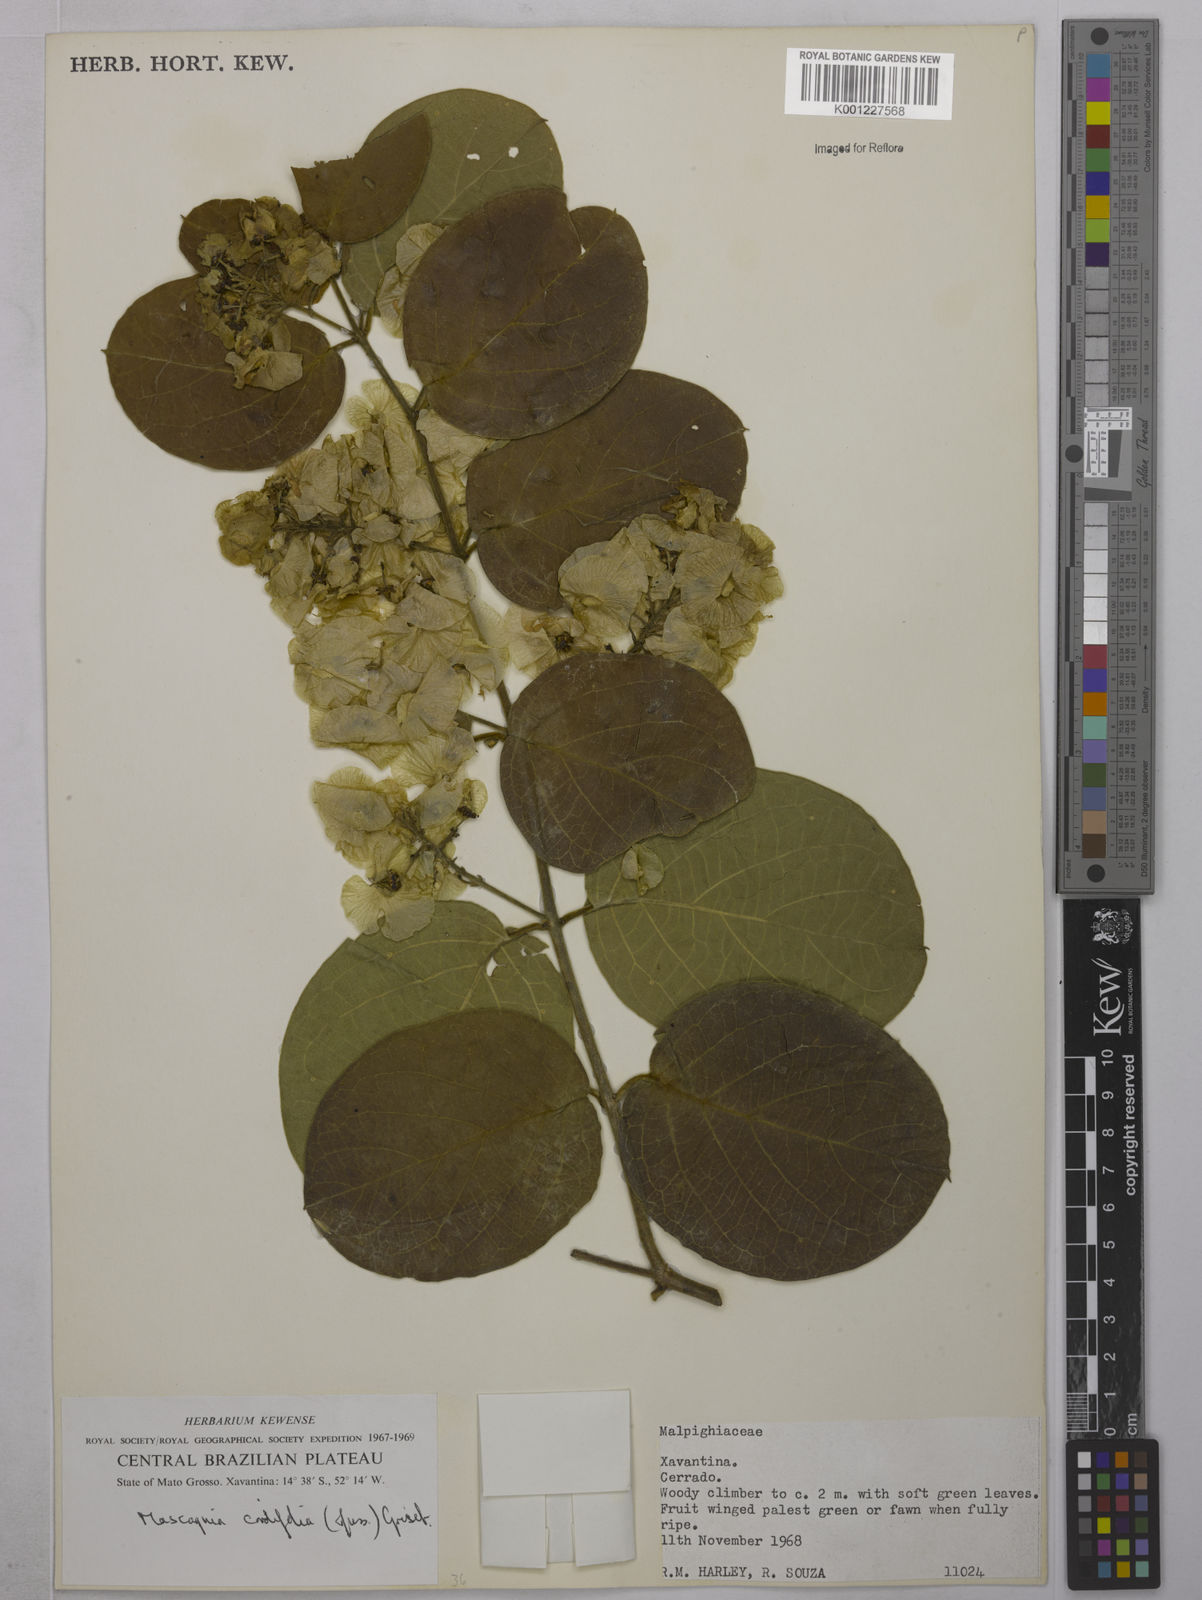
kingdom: Plantae
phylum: Tracheophyta
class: Magnoliopsida
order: Malpighiales
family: Malpighiaceae
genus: Mascagnia
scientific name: Mascagnia cordifolia
